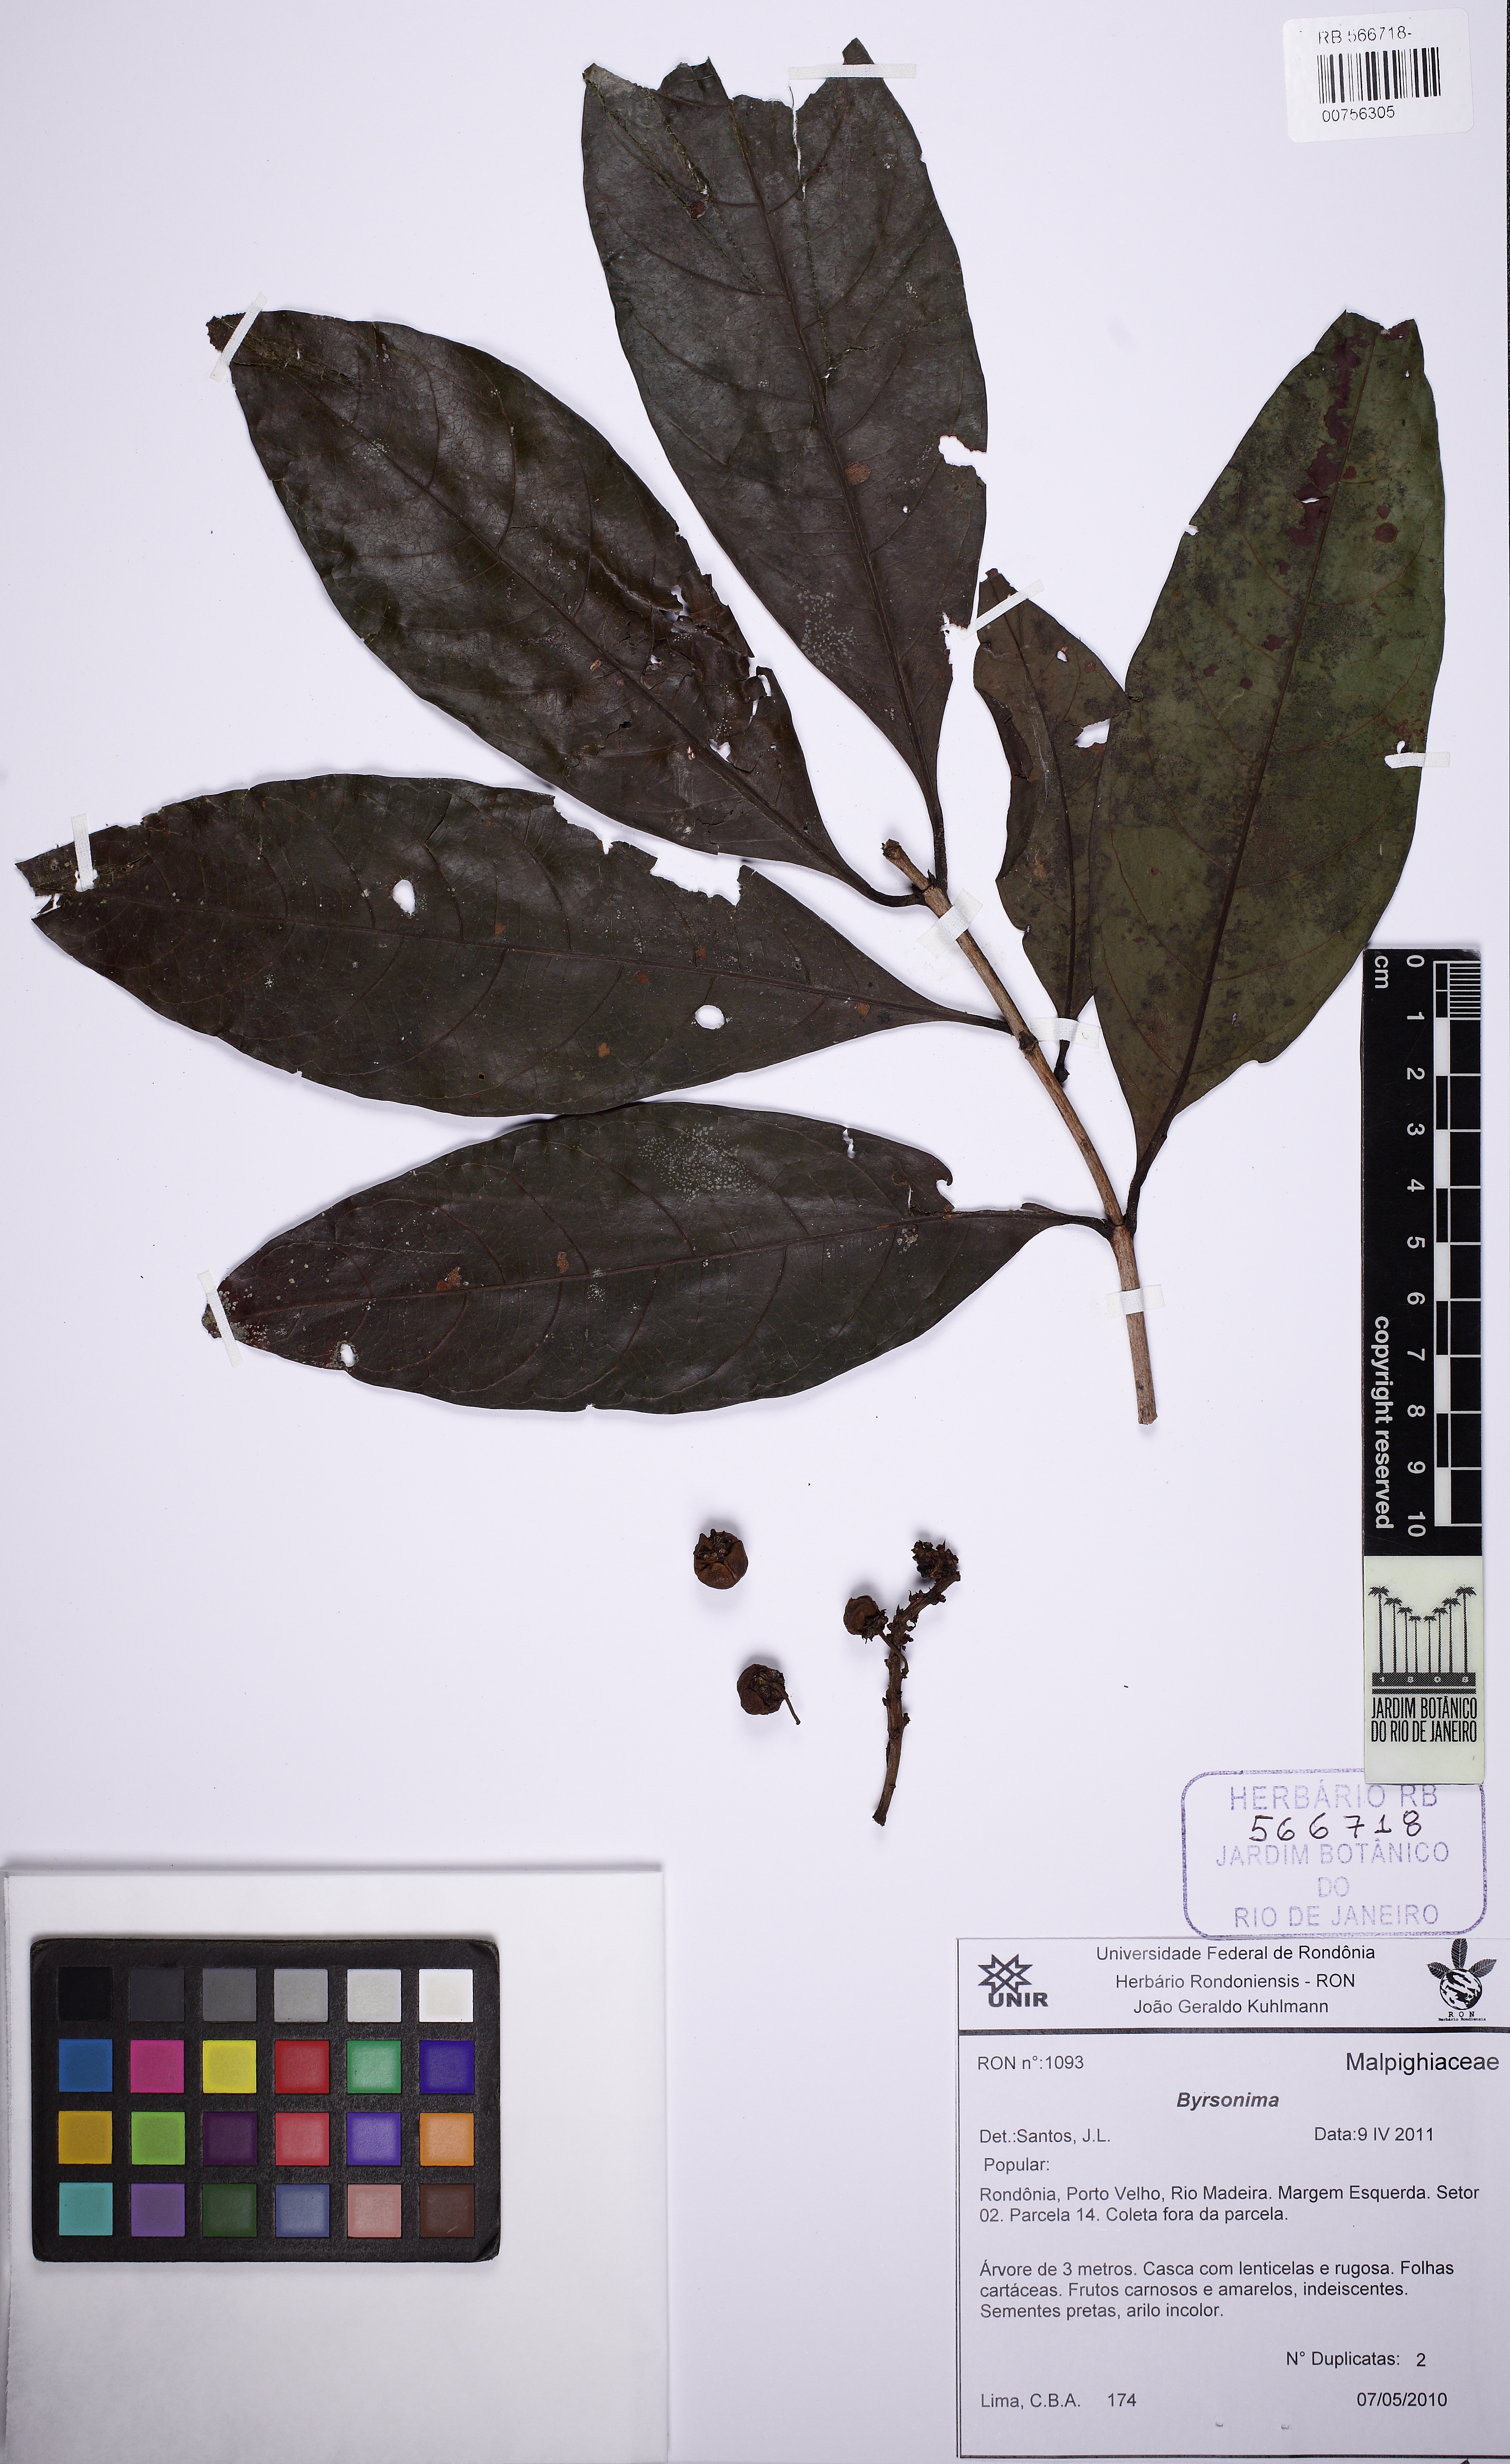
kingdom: Plantae
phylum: Tracheophyta
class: Magnoliopsida
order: Malpighiales
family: Malpighiaceae
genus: Byrsonima
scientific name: Byrsonima
